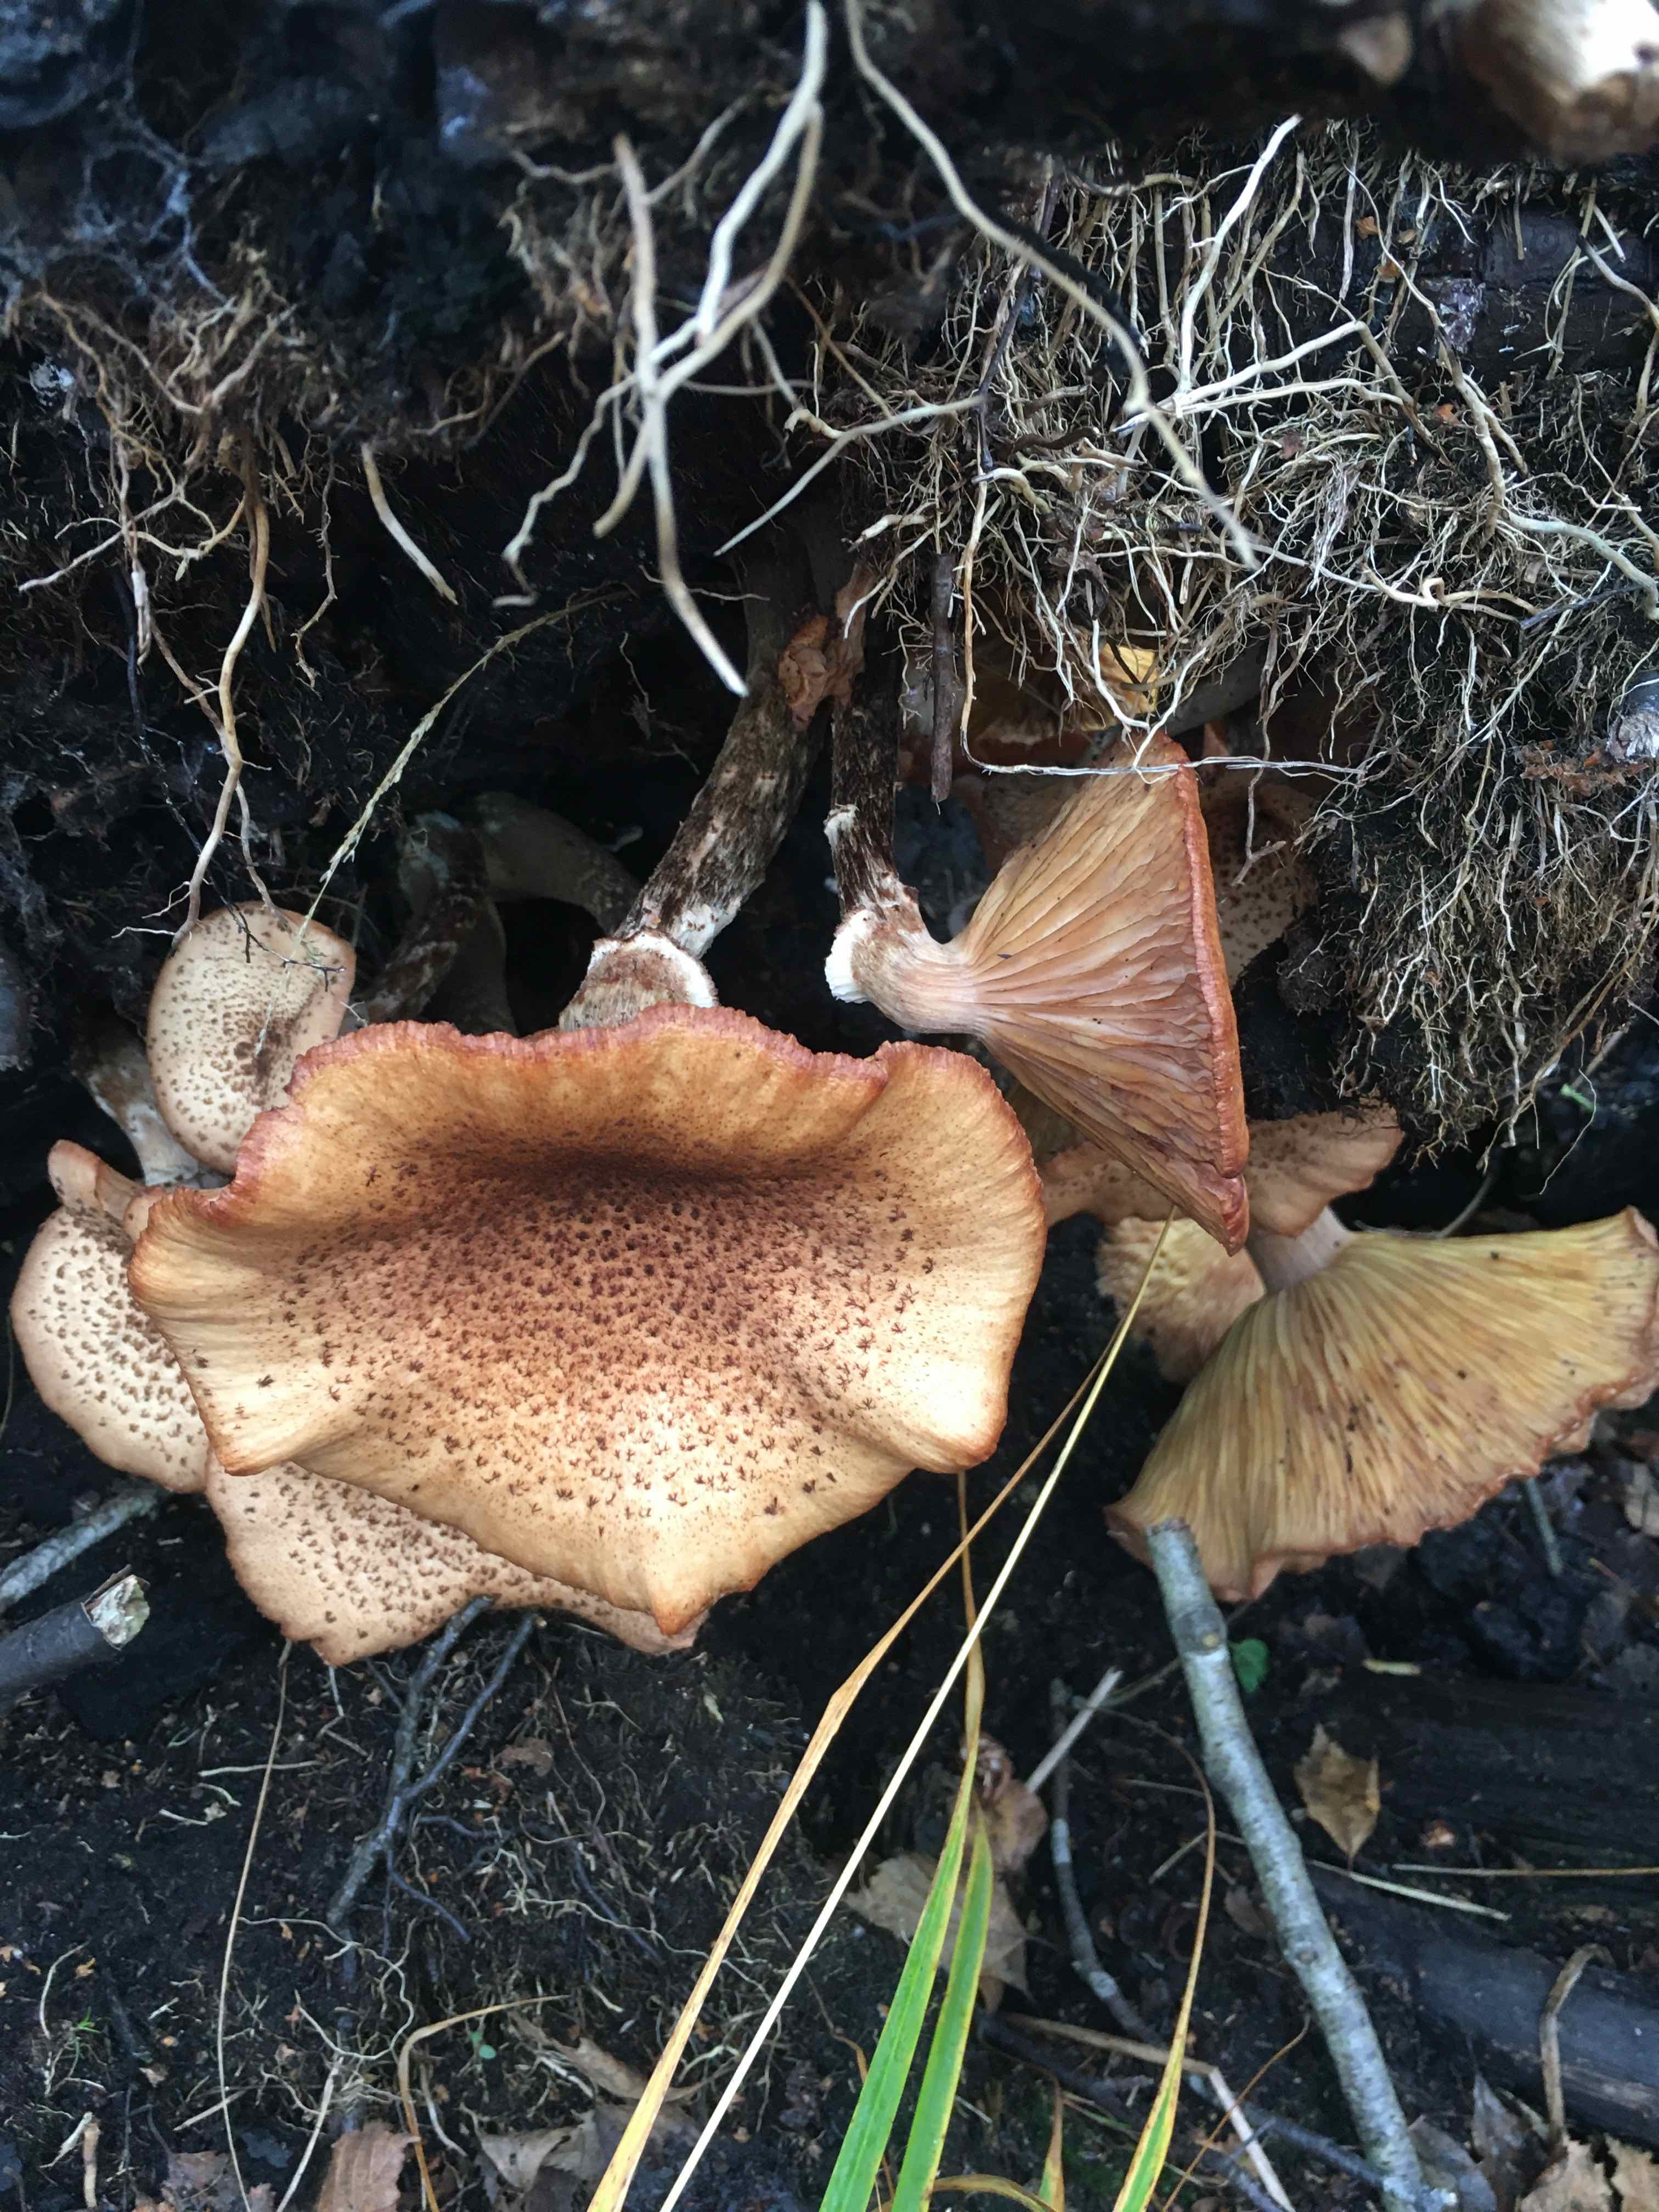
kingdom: Fungi
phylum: Basidiomycota
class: Agaricomycetes
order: Agaricales
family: Physalacriaceae
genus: Armillaria
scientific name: Armillaria
